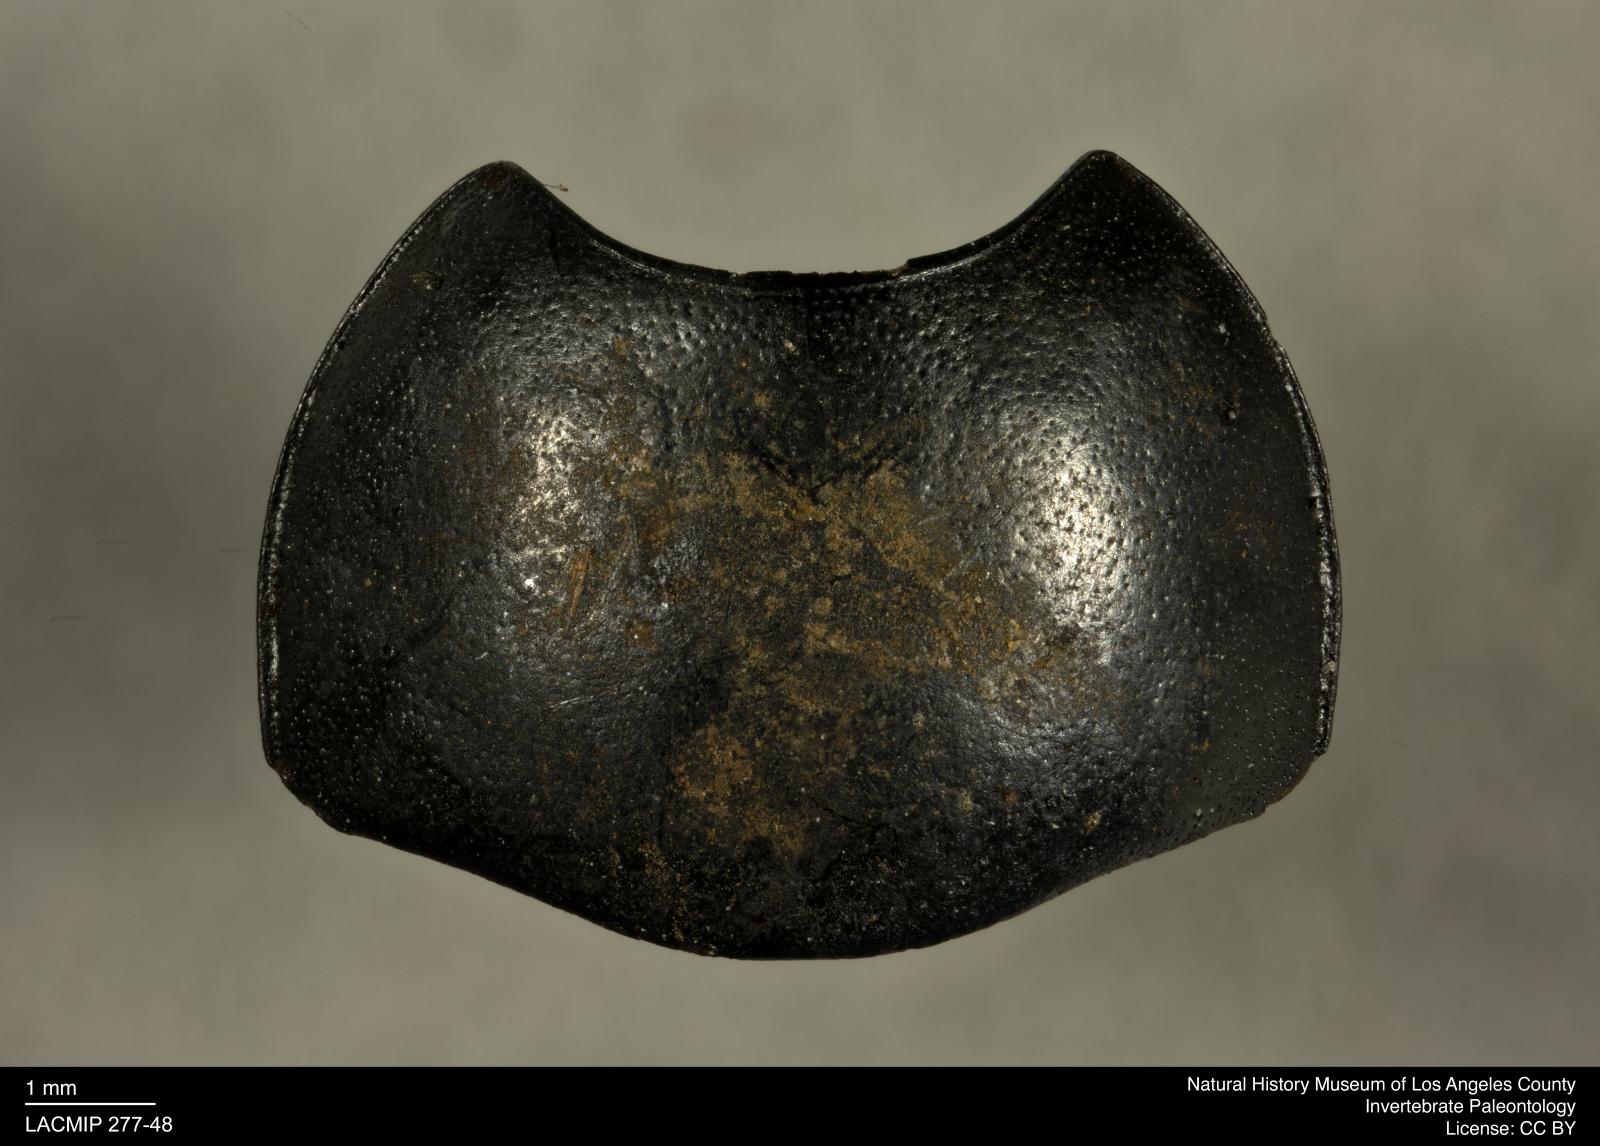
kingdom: Animalia
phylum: Arthropoda
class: Insecta
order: Coleoptera
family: Tenebrionidae
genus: Coniontis
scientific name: Coniontis abdominalis
